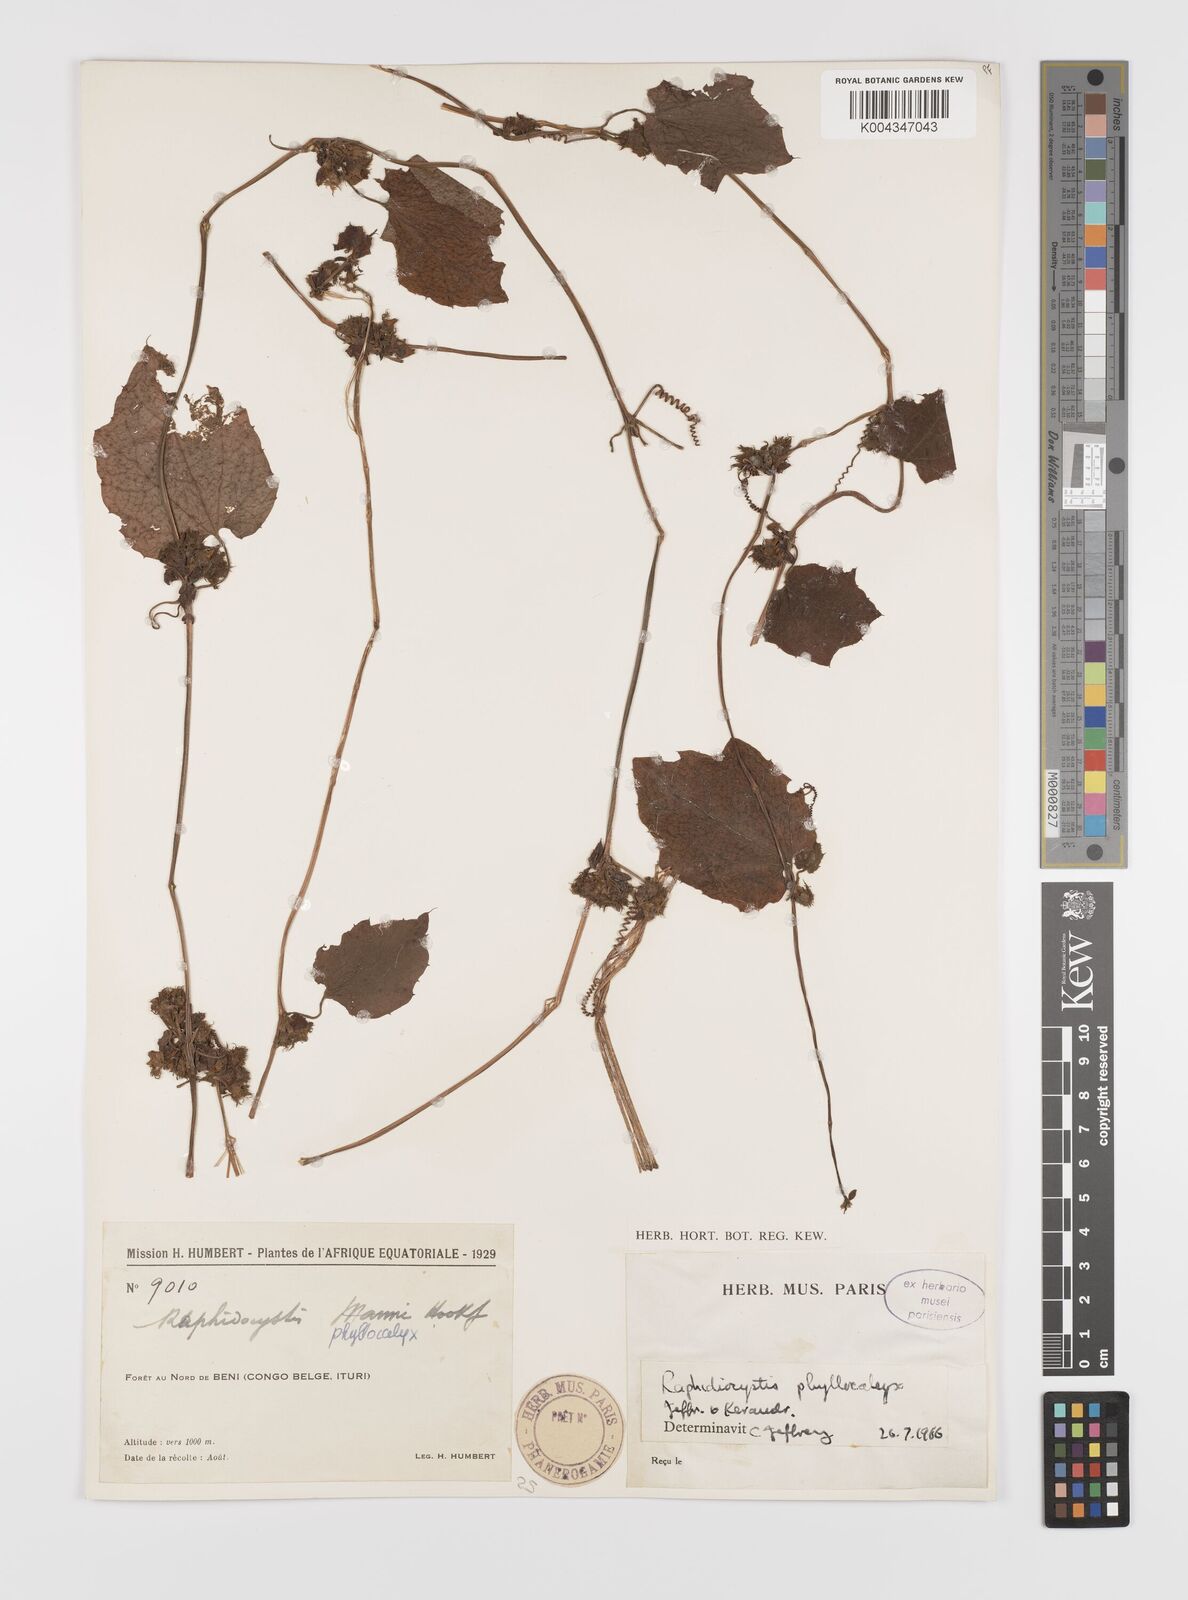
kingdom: Plantae
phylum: Tracheophyta
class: Magnoliopsida
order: Cucurbitales
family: Cucurbitaceae
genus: Raphidiocystis
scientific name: Raphidiocystis phyllocalyx
